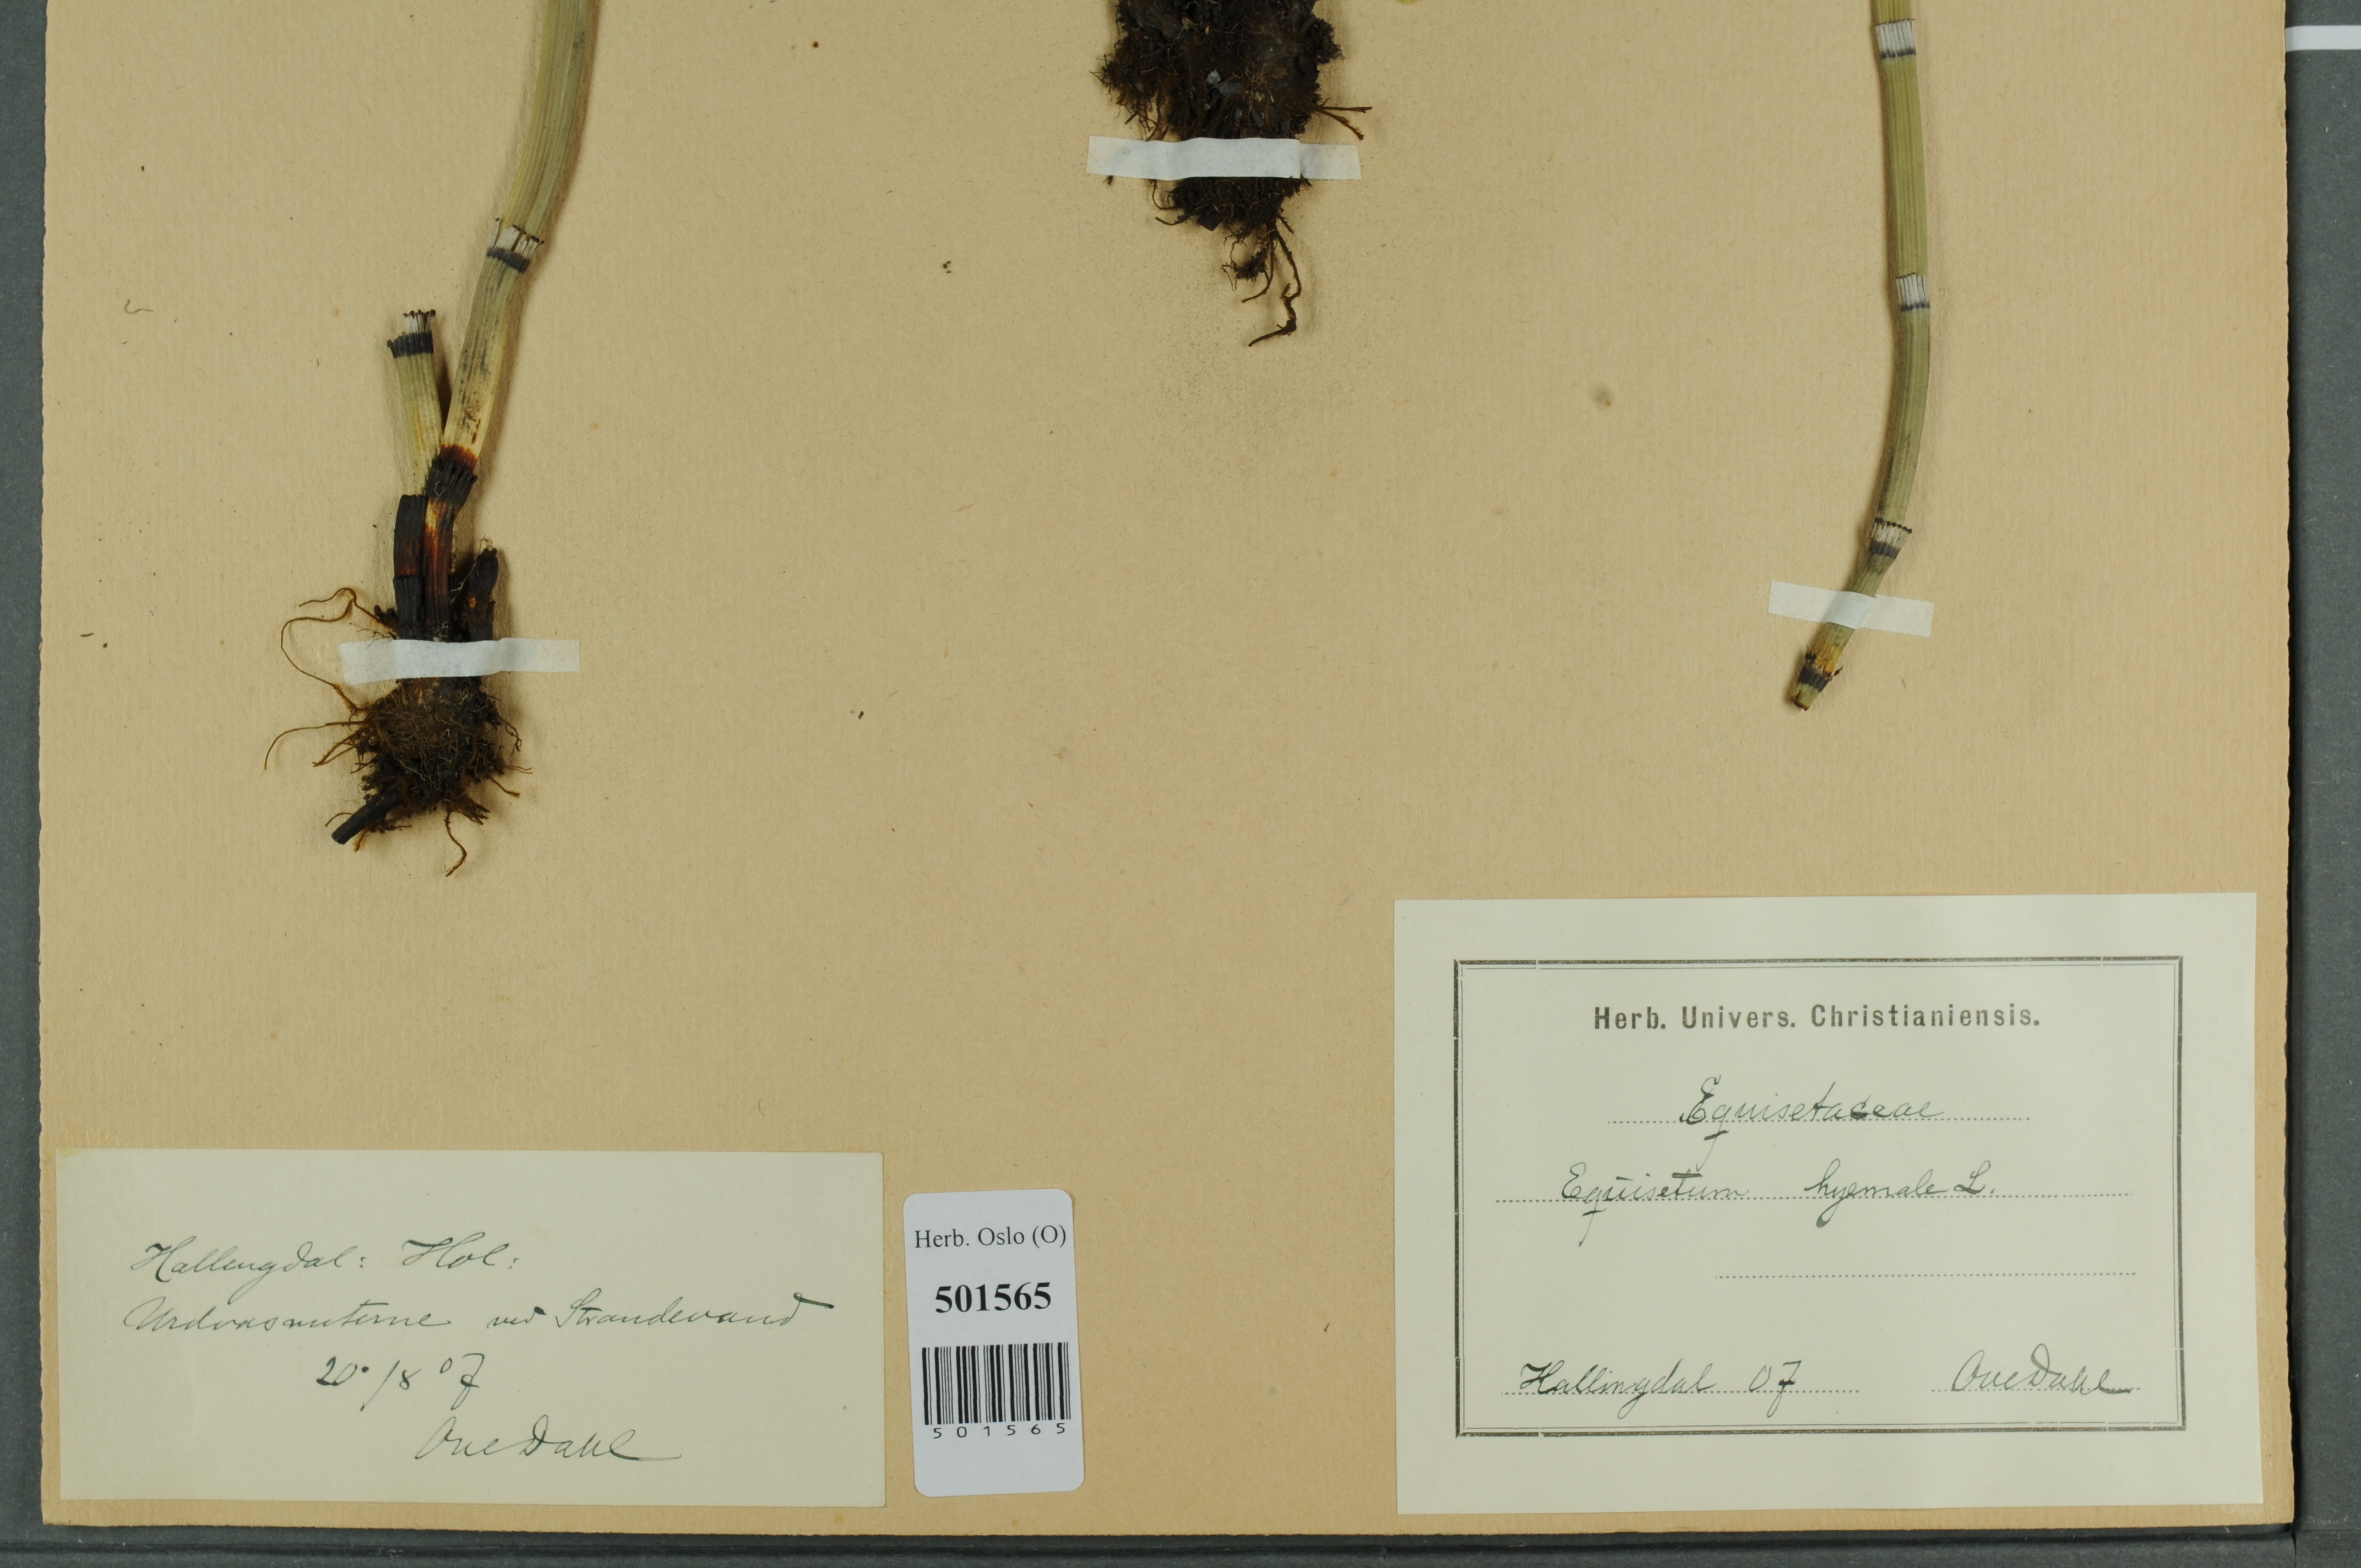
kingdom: Plantae
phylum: Tracheophyta
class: Polypodiopsida
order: Equisetales
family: Equisetaceae
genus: Equisetum
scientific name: Equisetum hyemale
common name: Rough horsetail
